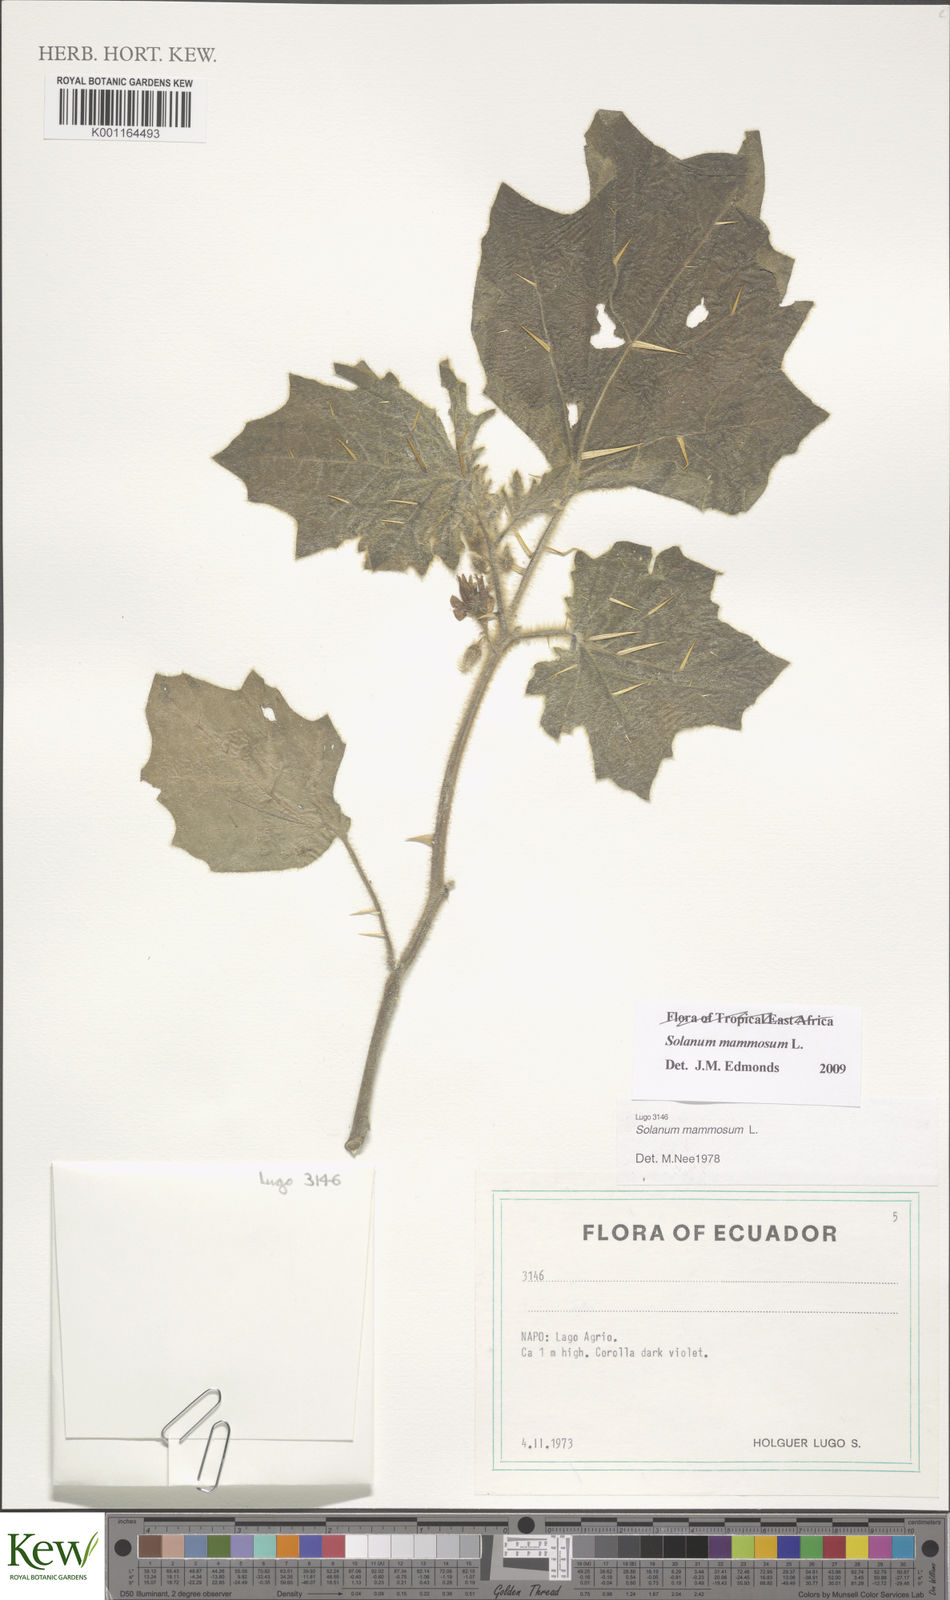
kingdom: Plantae
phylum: Tracheophyta
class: Magnoliopsida
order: Solanales
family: Solanaceae
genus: Solanum
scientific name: Solanum mammosum
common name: Nipple fruit
